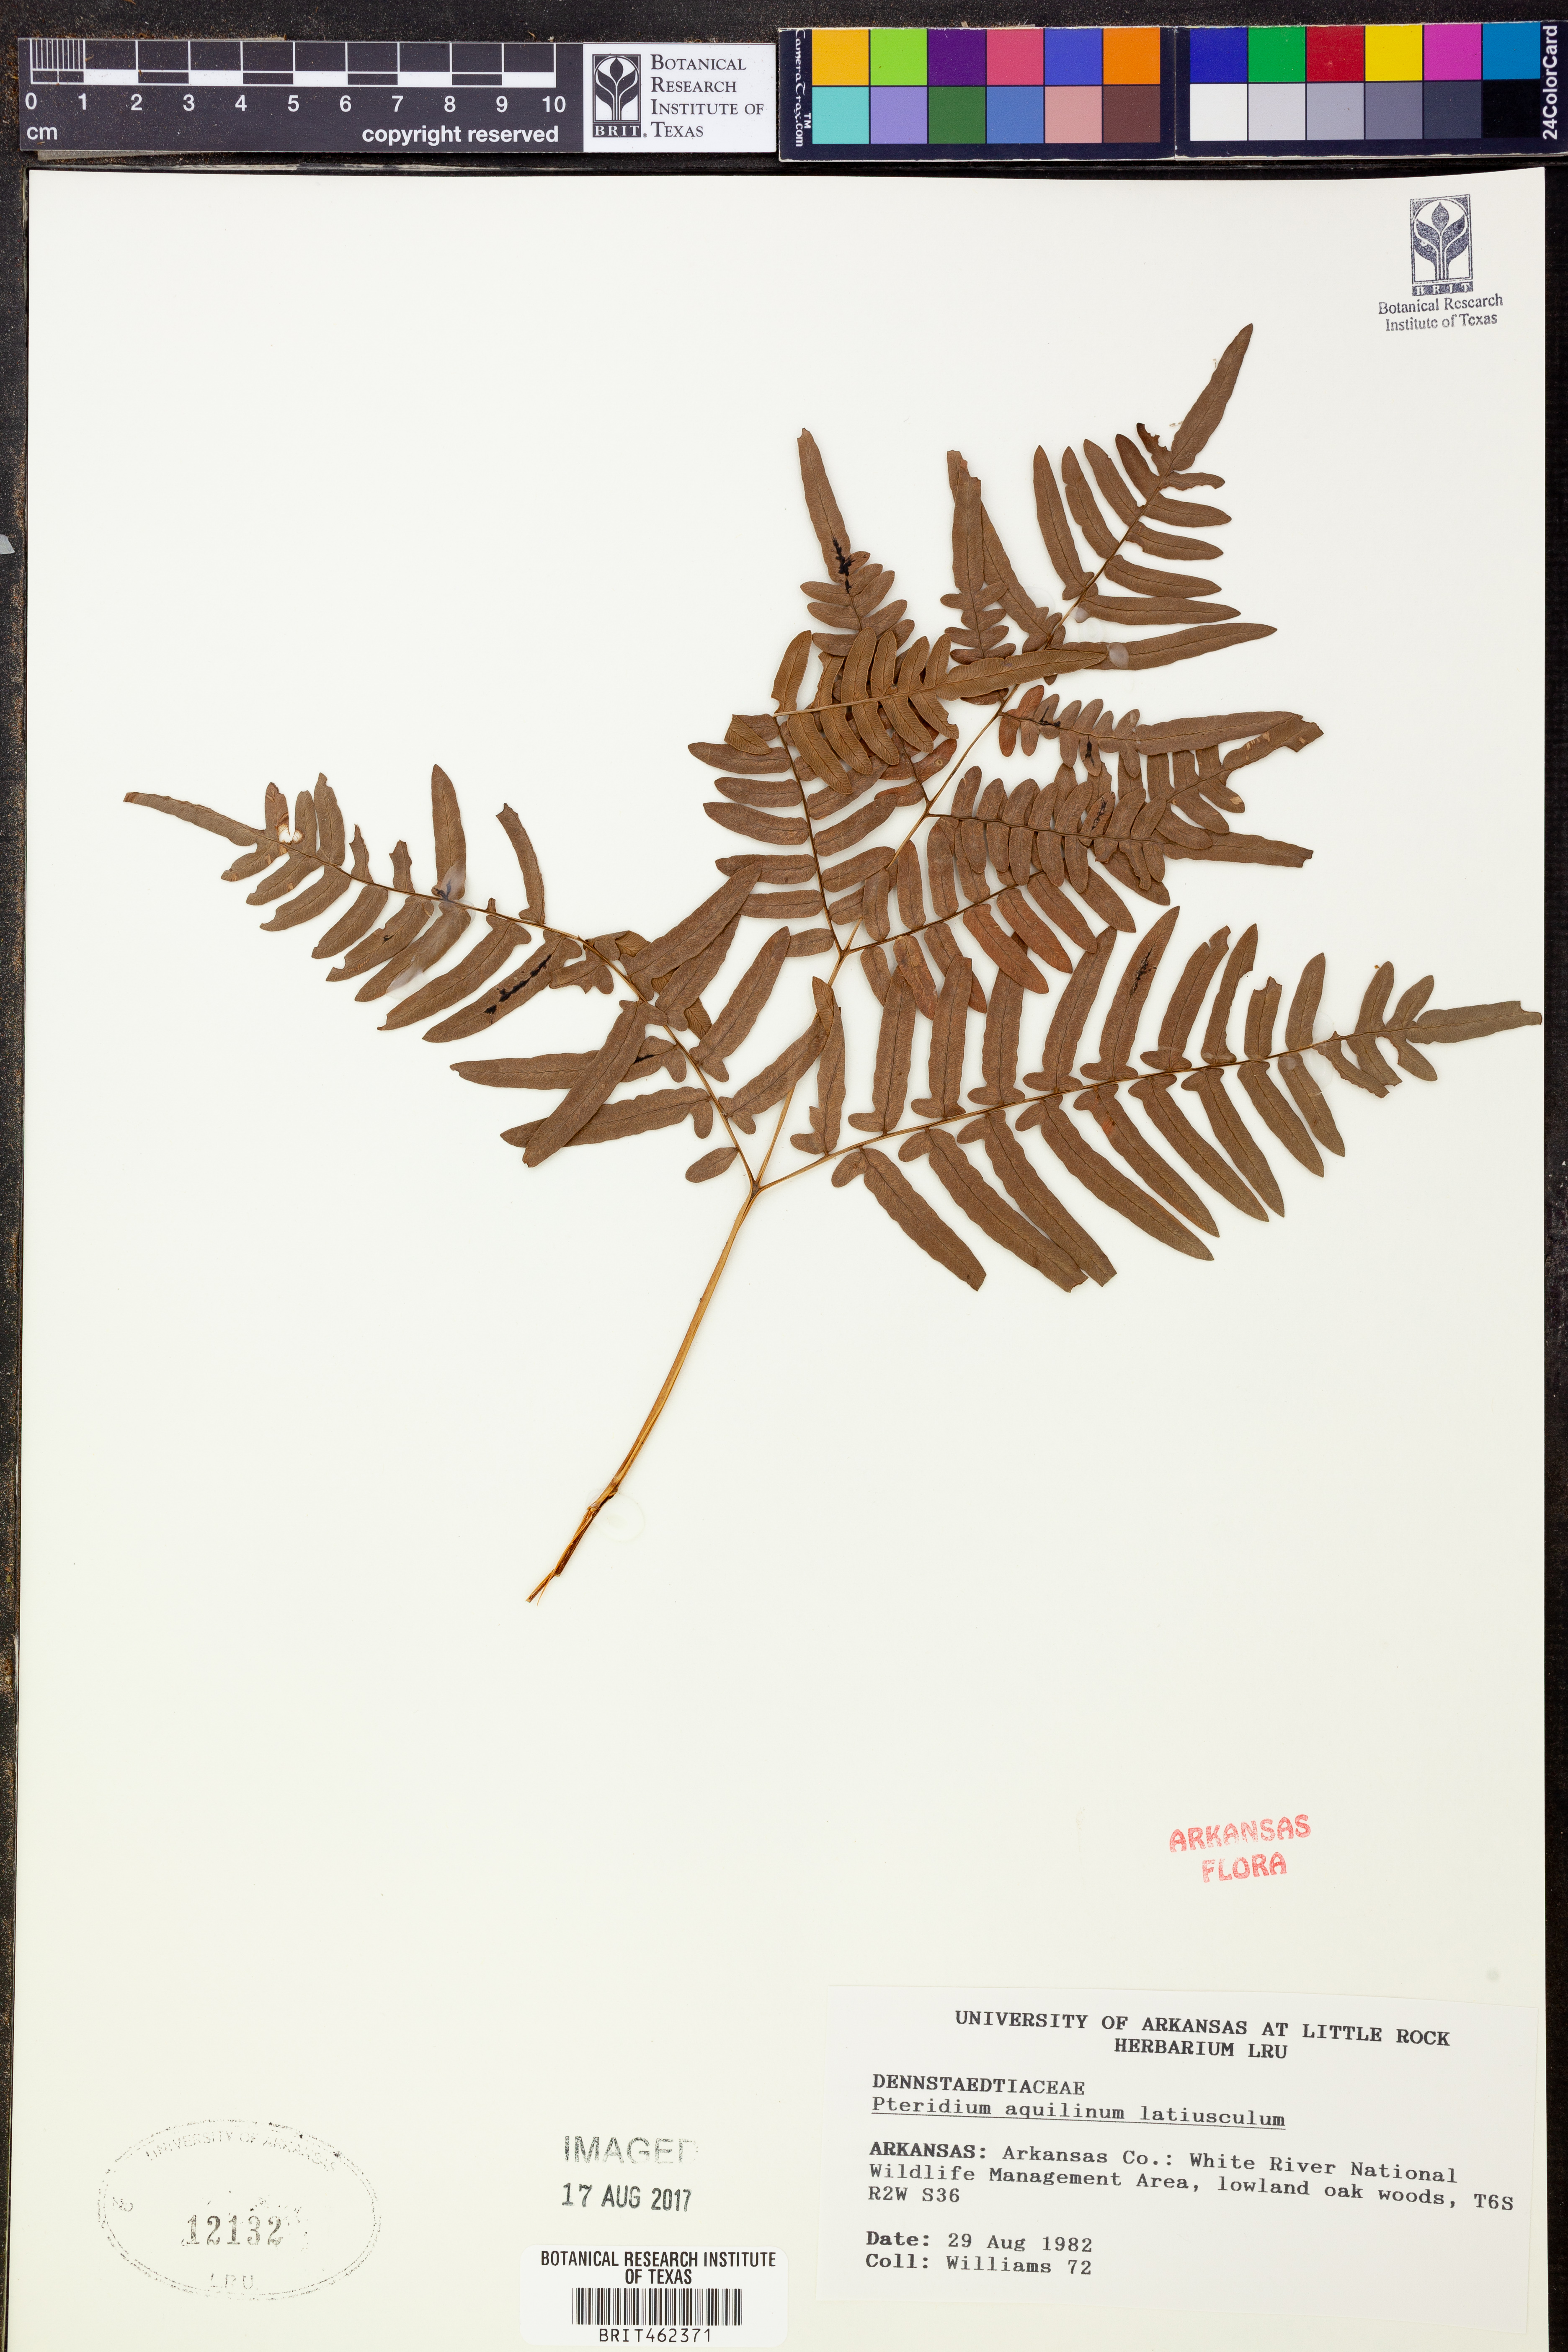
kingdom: Plantae
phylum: Tracheophyta
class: Polypodiopsida
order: Polypodiales
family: Dennstaedtiaceae
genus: Pteridium
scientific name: Pteridium aquilinum
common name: Bracken
